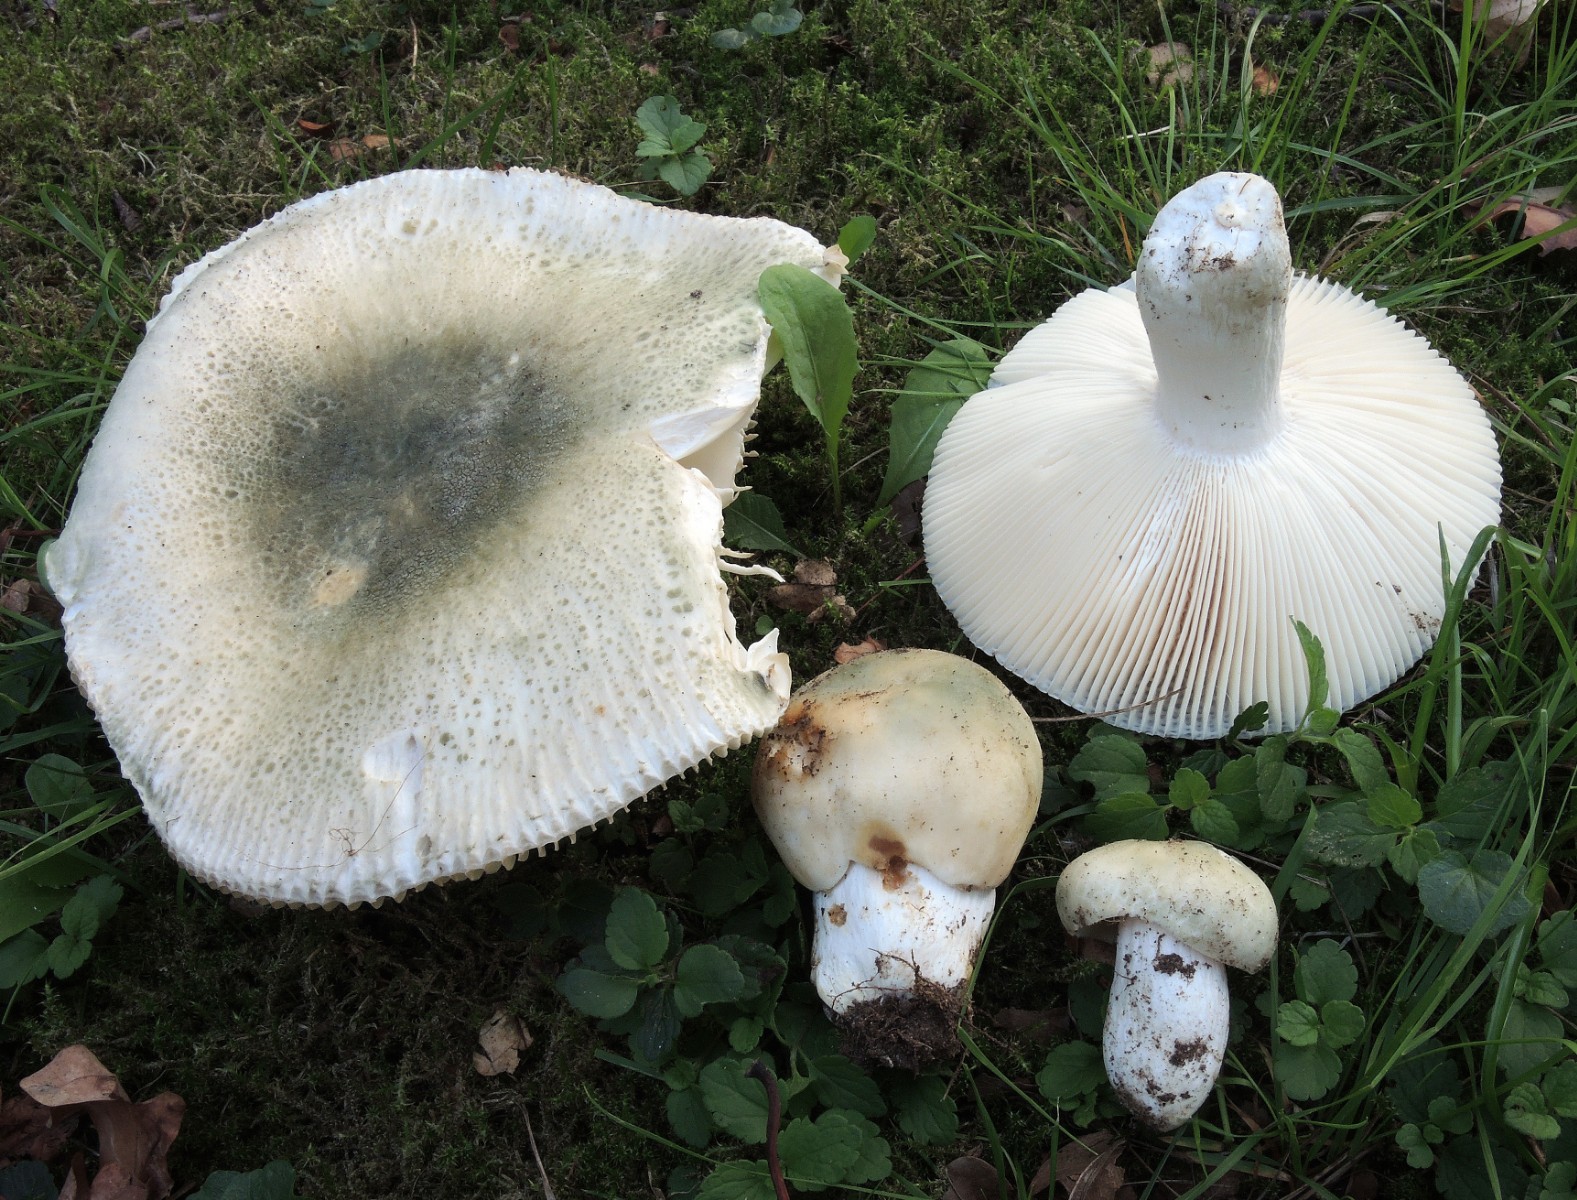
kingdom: Fungi
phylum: Basidiomycota
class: Agaricomycetes
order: Russulales
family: Russulaceae
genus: Russula
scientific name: Russula virescens
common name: spanskgrøn skørhat
